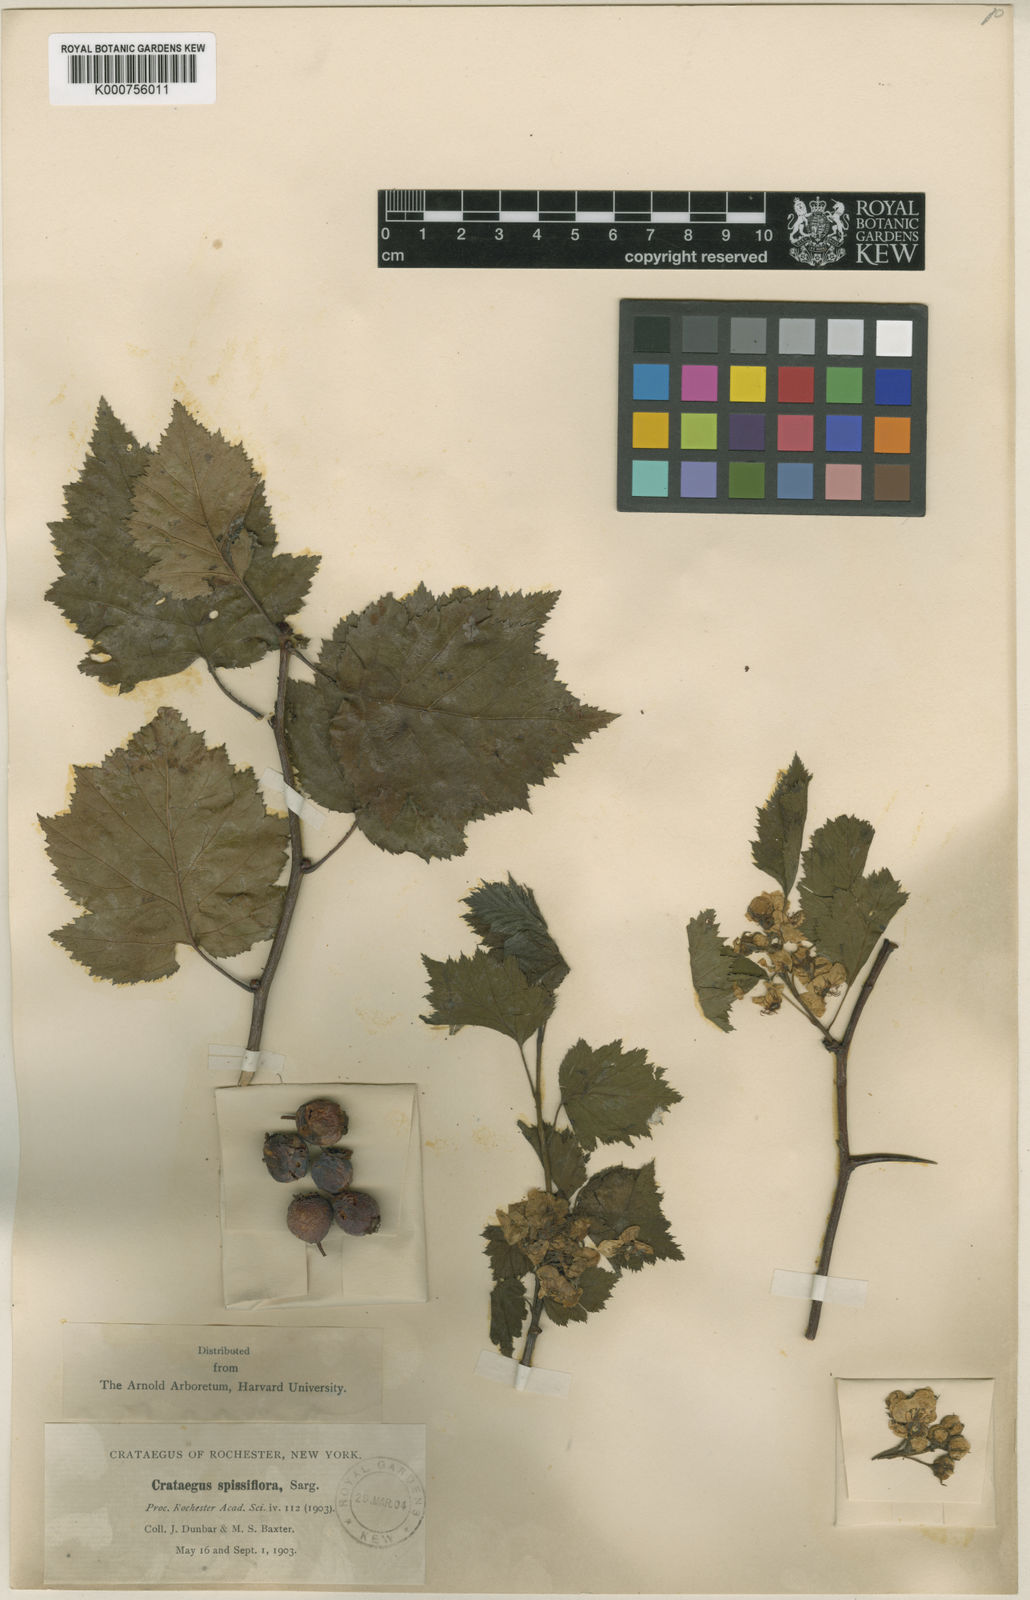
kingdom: Plantae
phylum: Tracheophyta
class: Magnoliopsida
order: Rosales
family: Rosaceae
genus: Crataegus
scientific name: Crataegus coccinea
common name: Scarlet hawthorn
